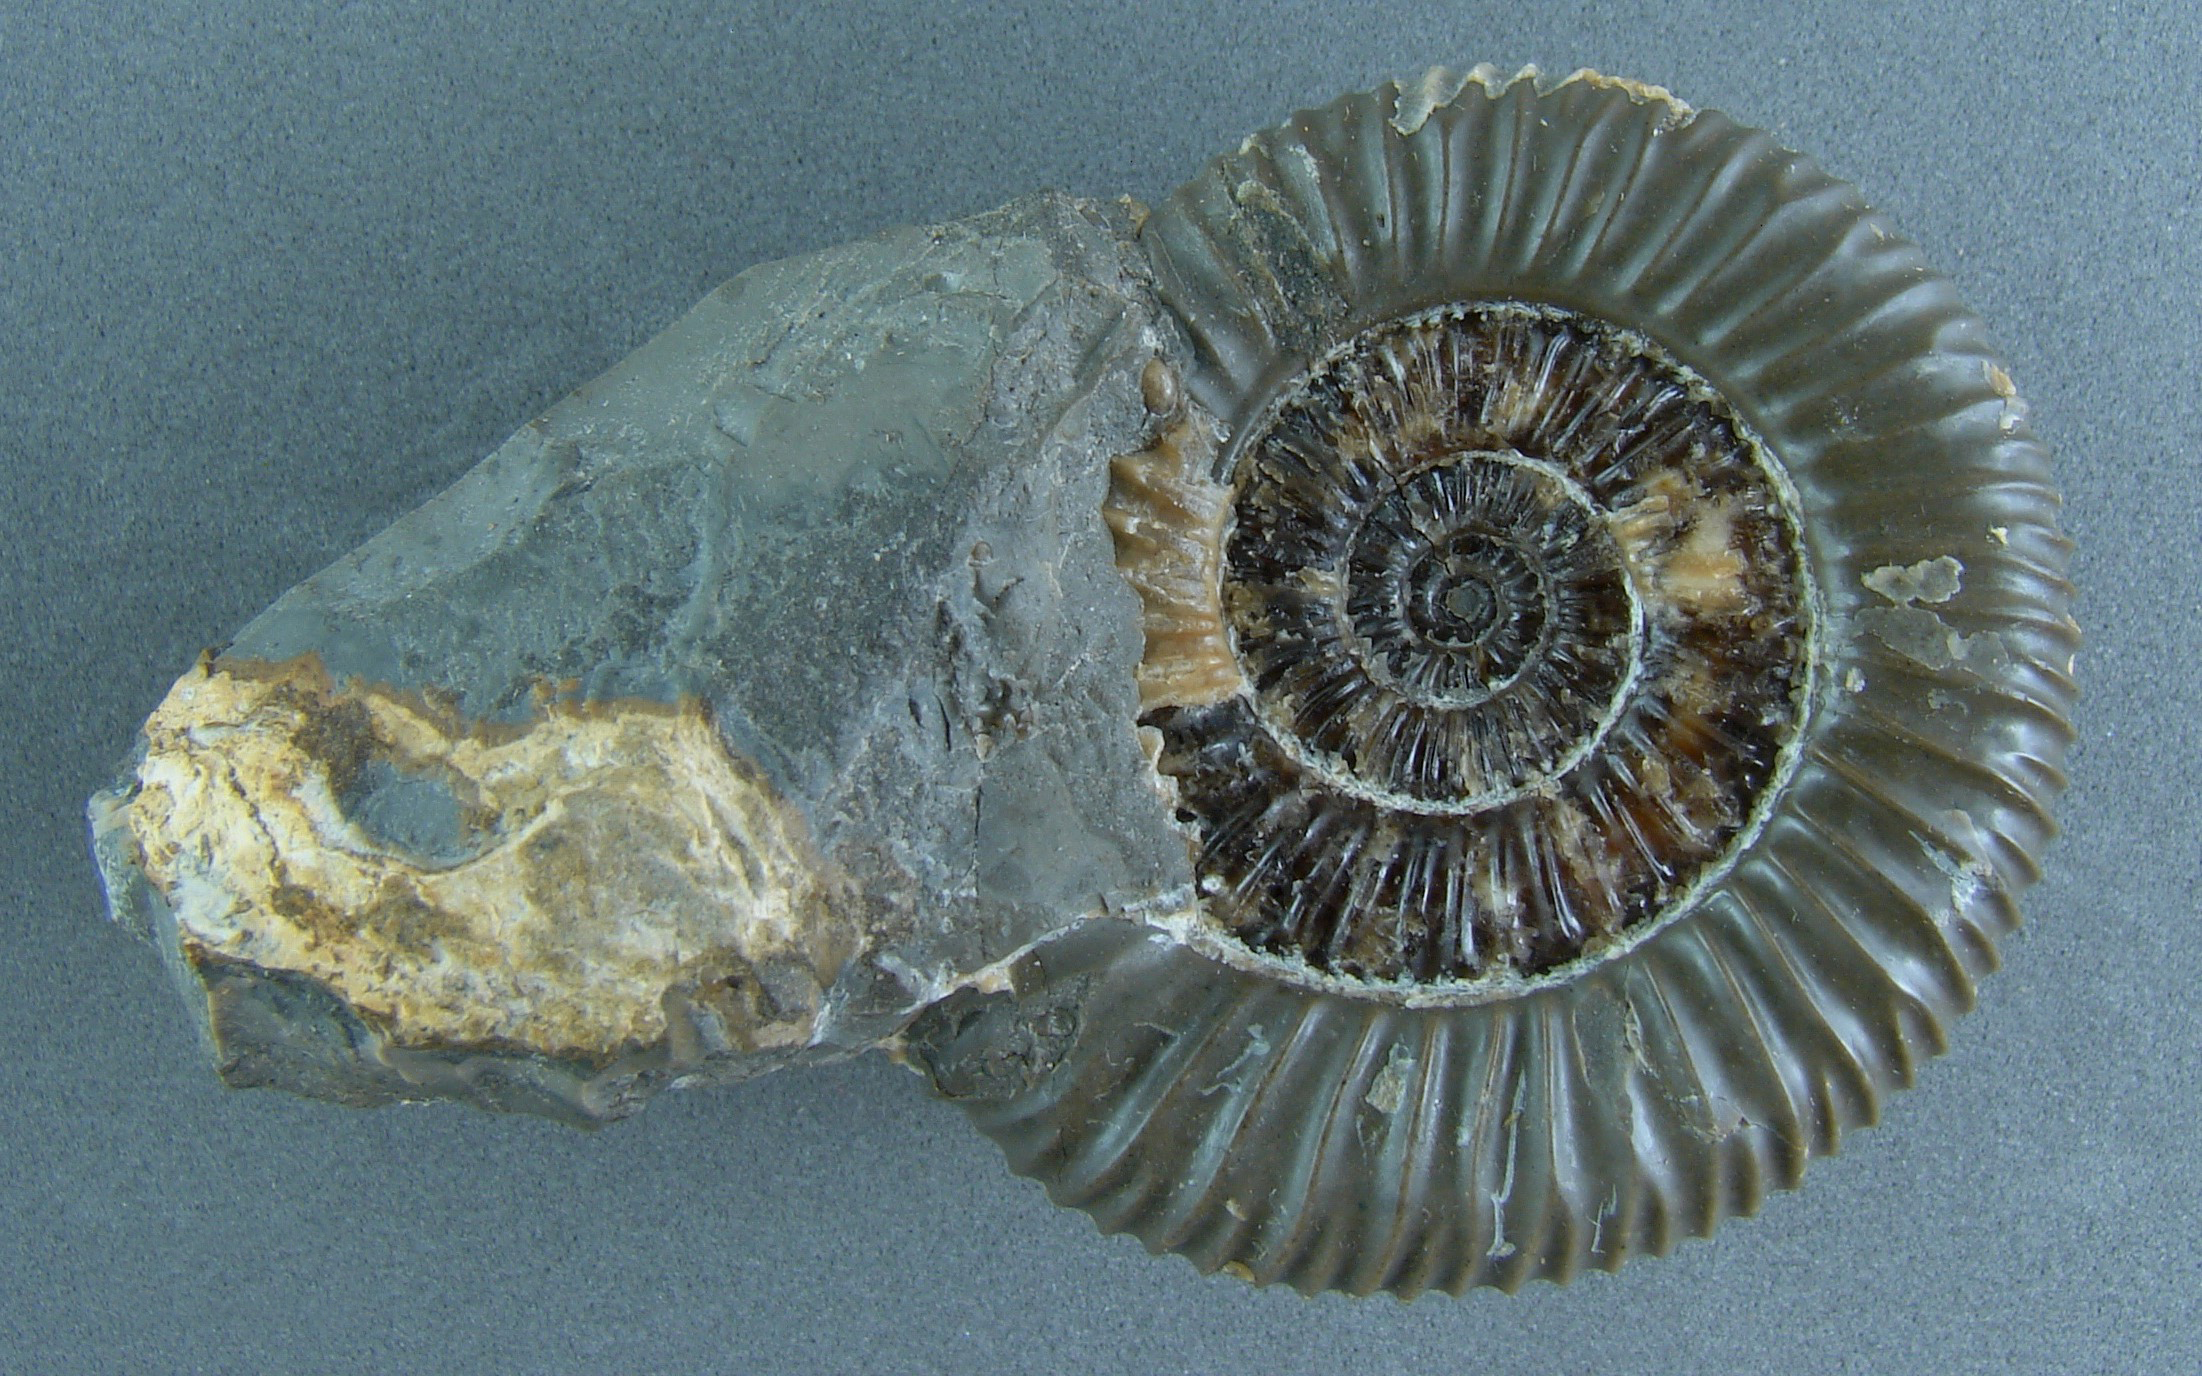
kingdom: Animalia
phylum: Mollusca
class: Cephalopoda
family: Dactylioceratidae
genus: Dactylioceras
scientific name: Dactylioceras
